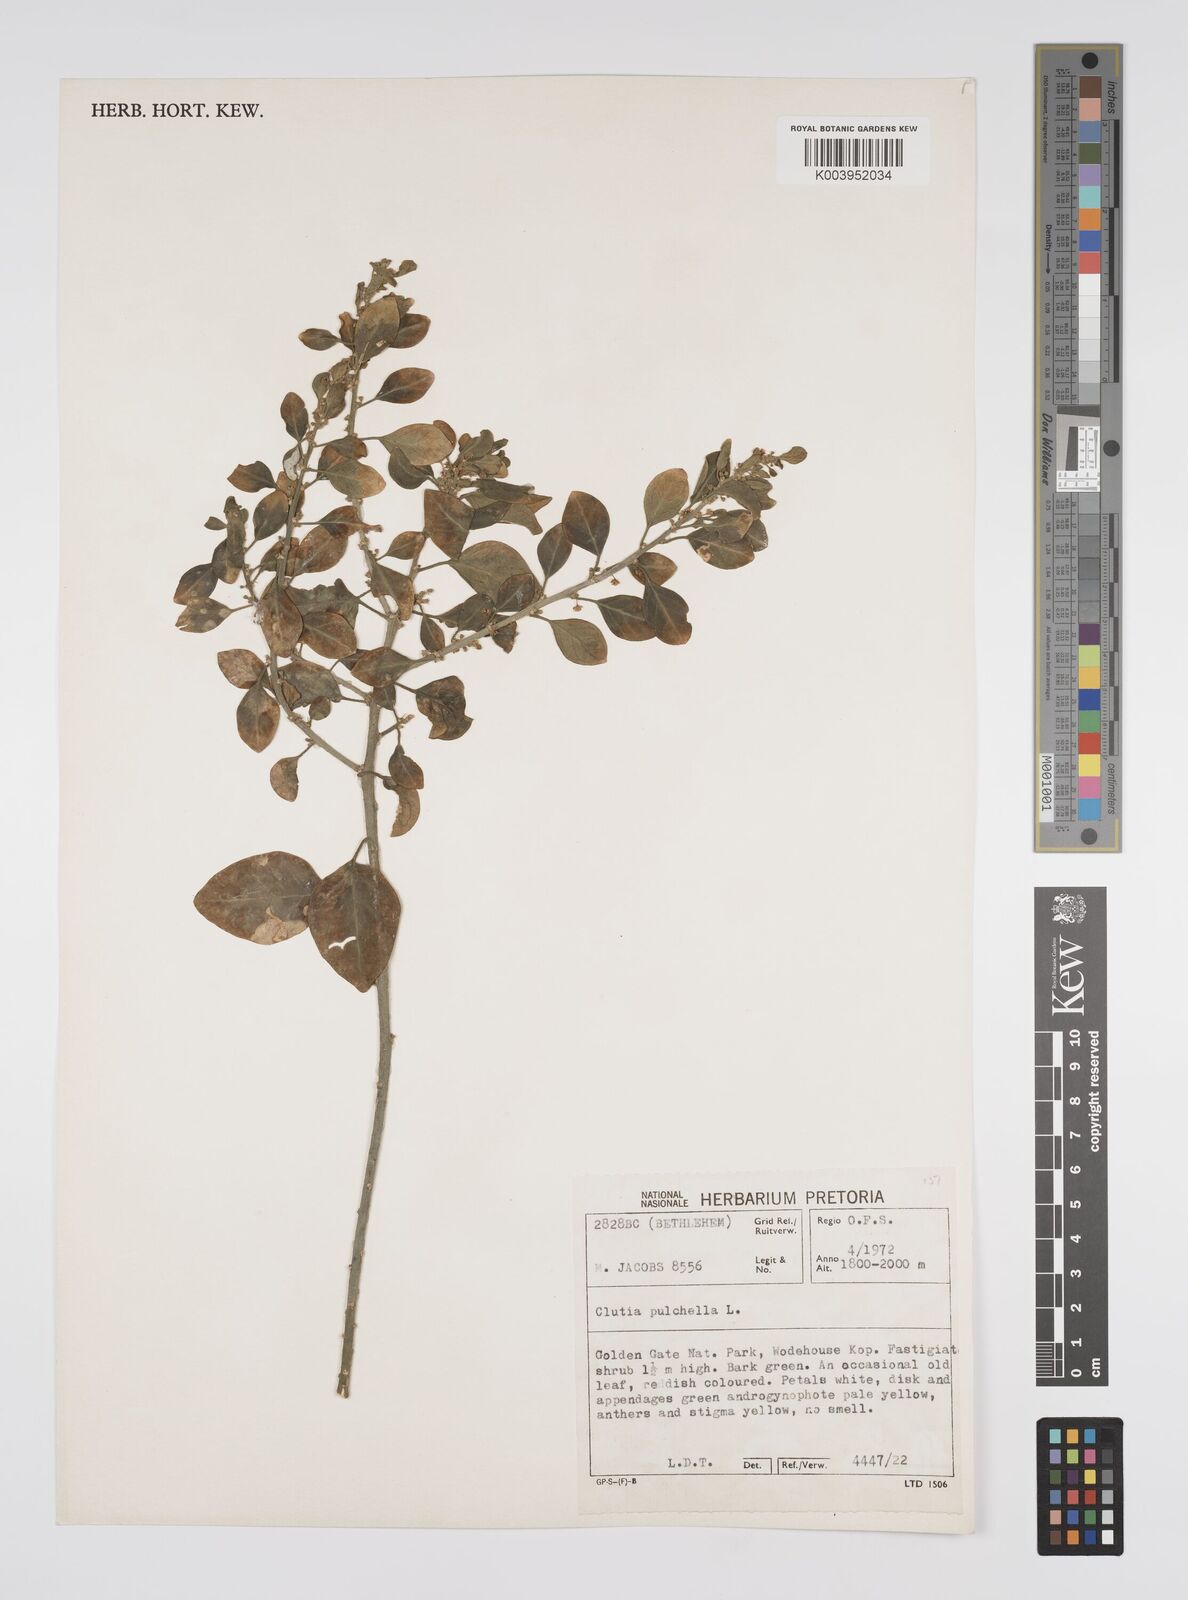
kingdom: Plantae
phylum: Tracheophyta
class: Magnoliopsida
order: Malpighiales
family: Peraceae
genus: Clutia
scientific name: Clutia pulchella
